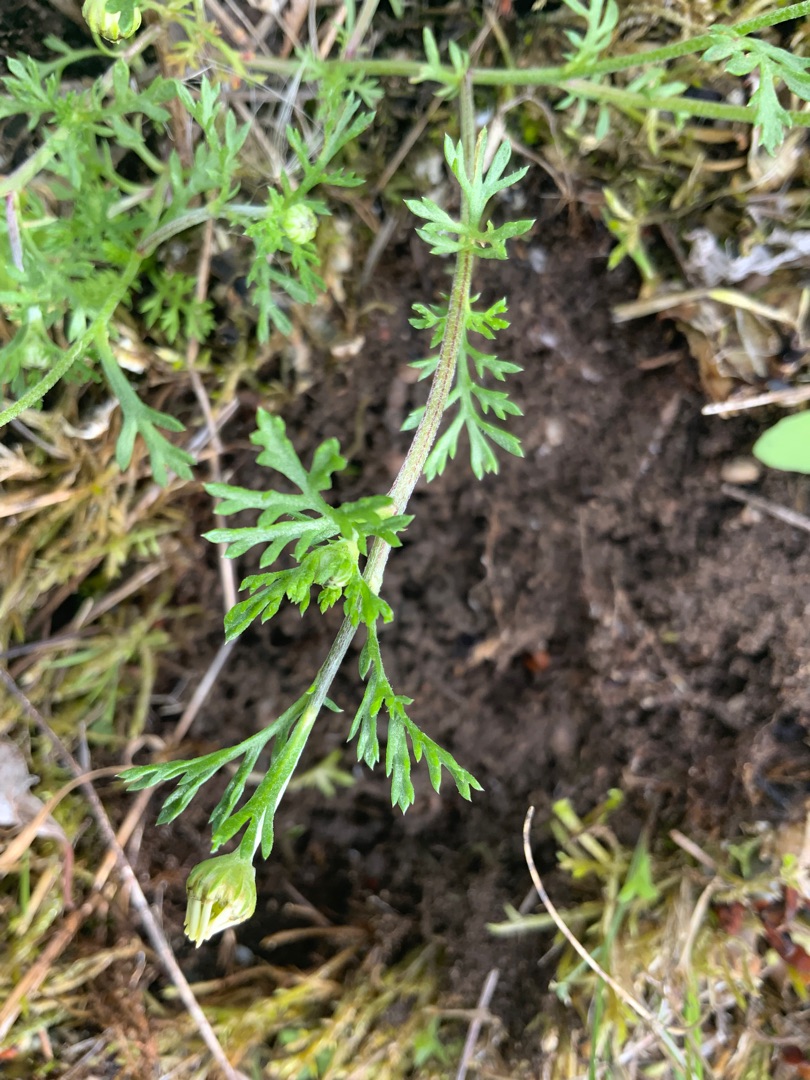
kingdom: Plantae
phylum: Tracheophyta
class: Magnoliopsida
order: Asterales
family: Asteraceae
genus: Anthemis
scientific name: Anthemis arvensis
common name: Ager-gåseurt
